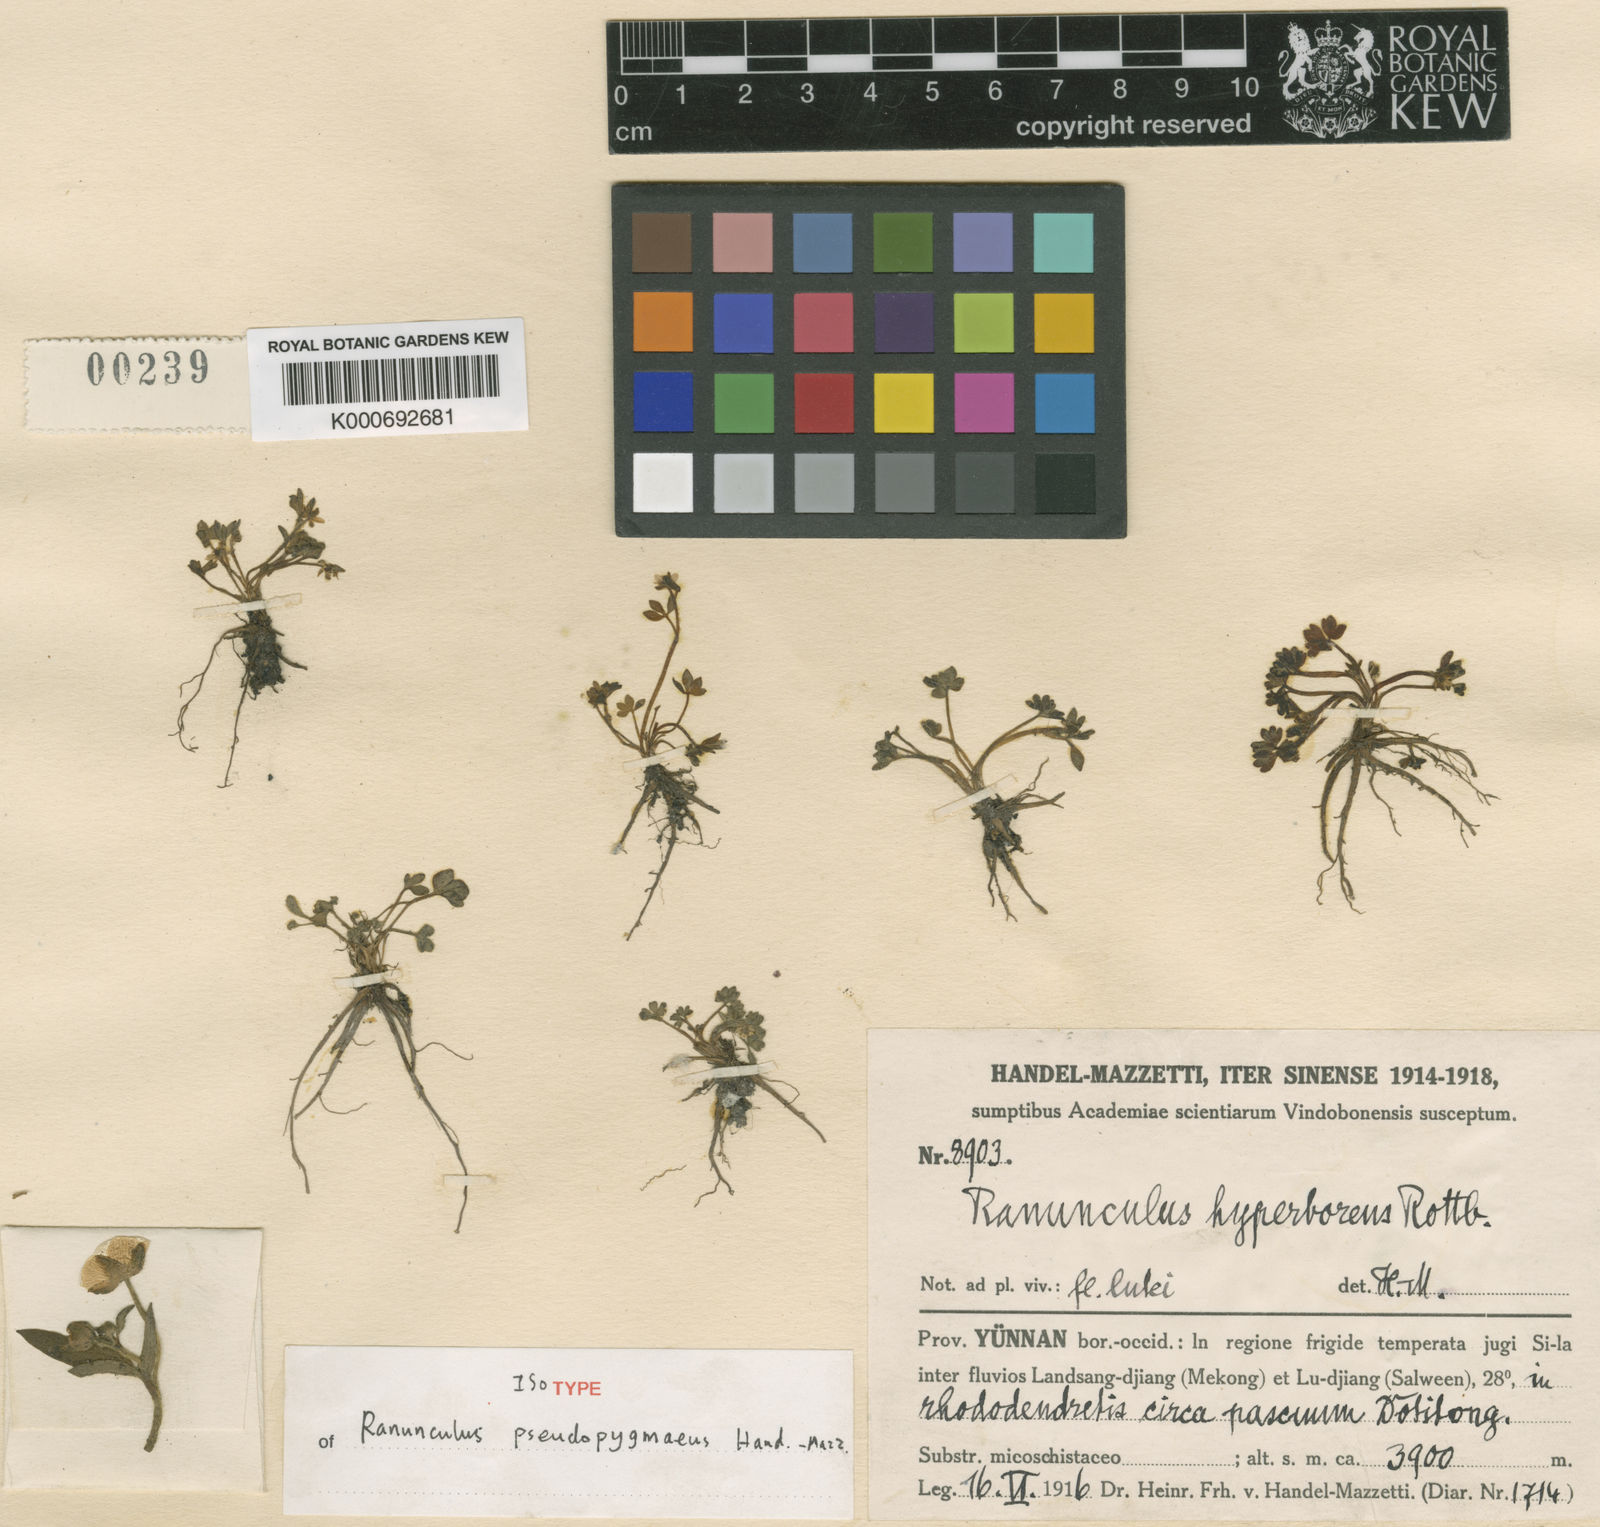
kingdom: Plantae
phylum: Tracheophyta
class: Magnoliopsida
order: Ranunculales
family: Ranunculaceae
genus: Ranunculus
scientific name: Ranunculus pseudopygmaeus
